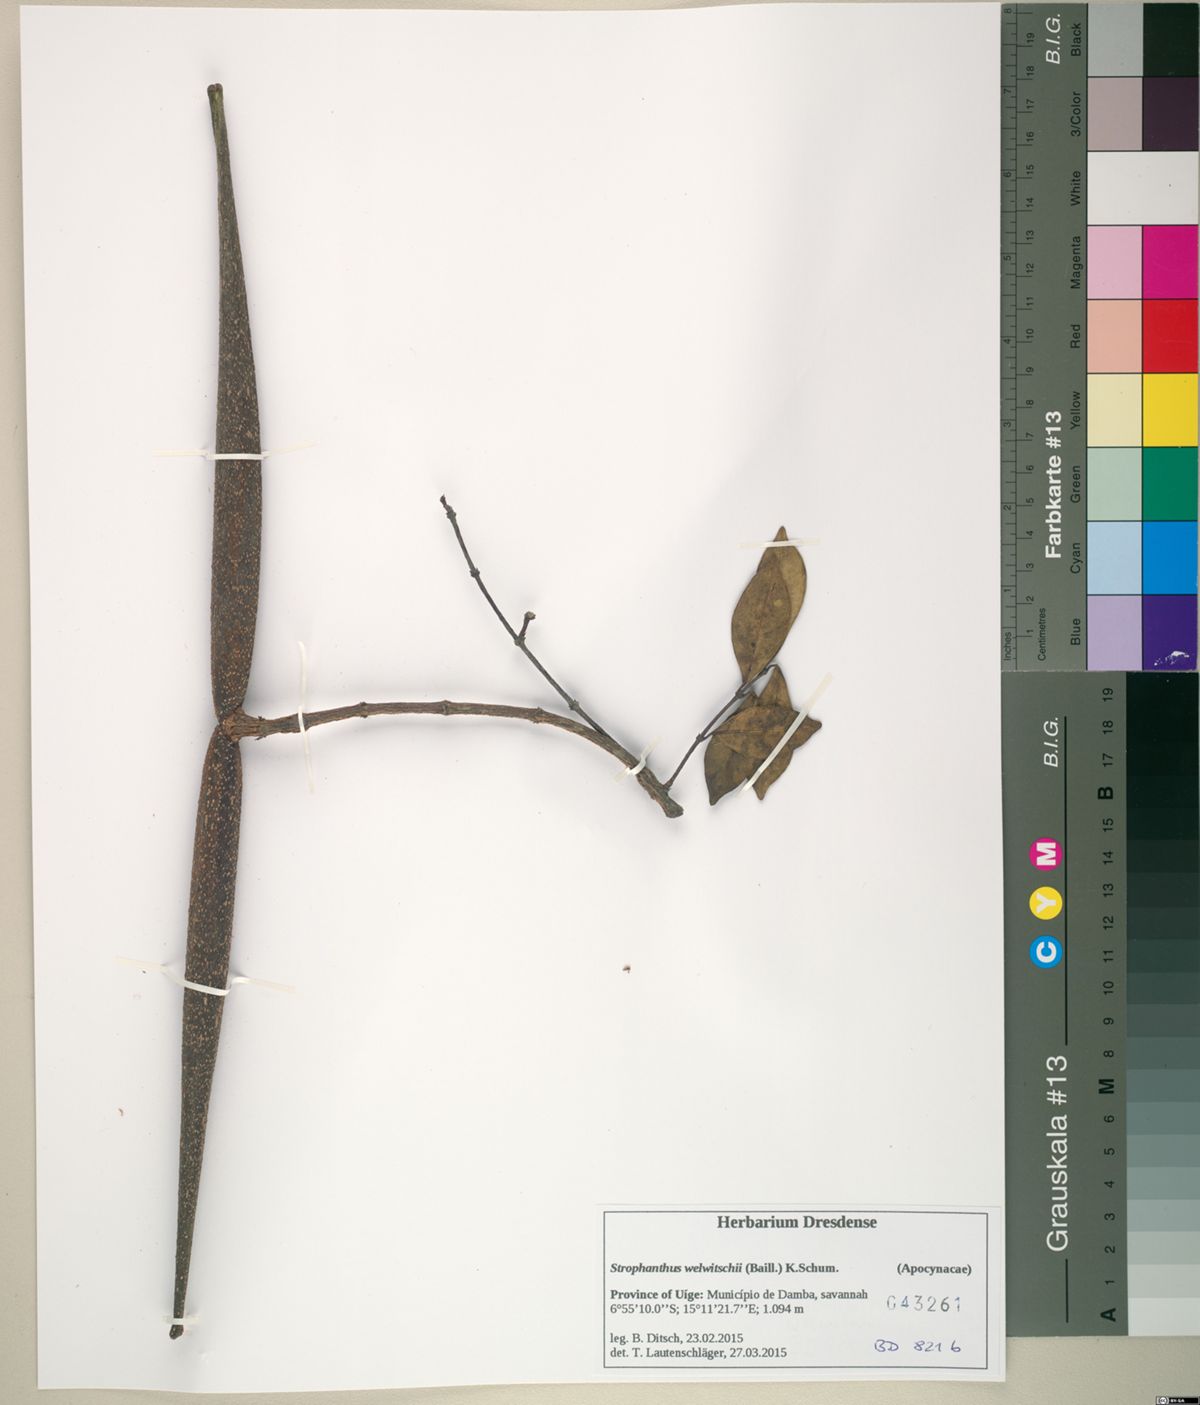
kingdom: Plantae
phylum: Tracheophyta
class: Magnoliopsida
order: Gentianales
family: Apocynaceae
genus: Strophanthus
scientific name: Strophanthus welwitschii
